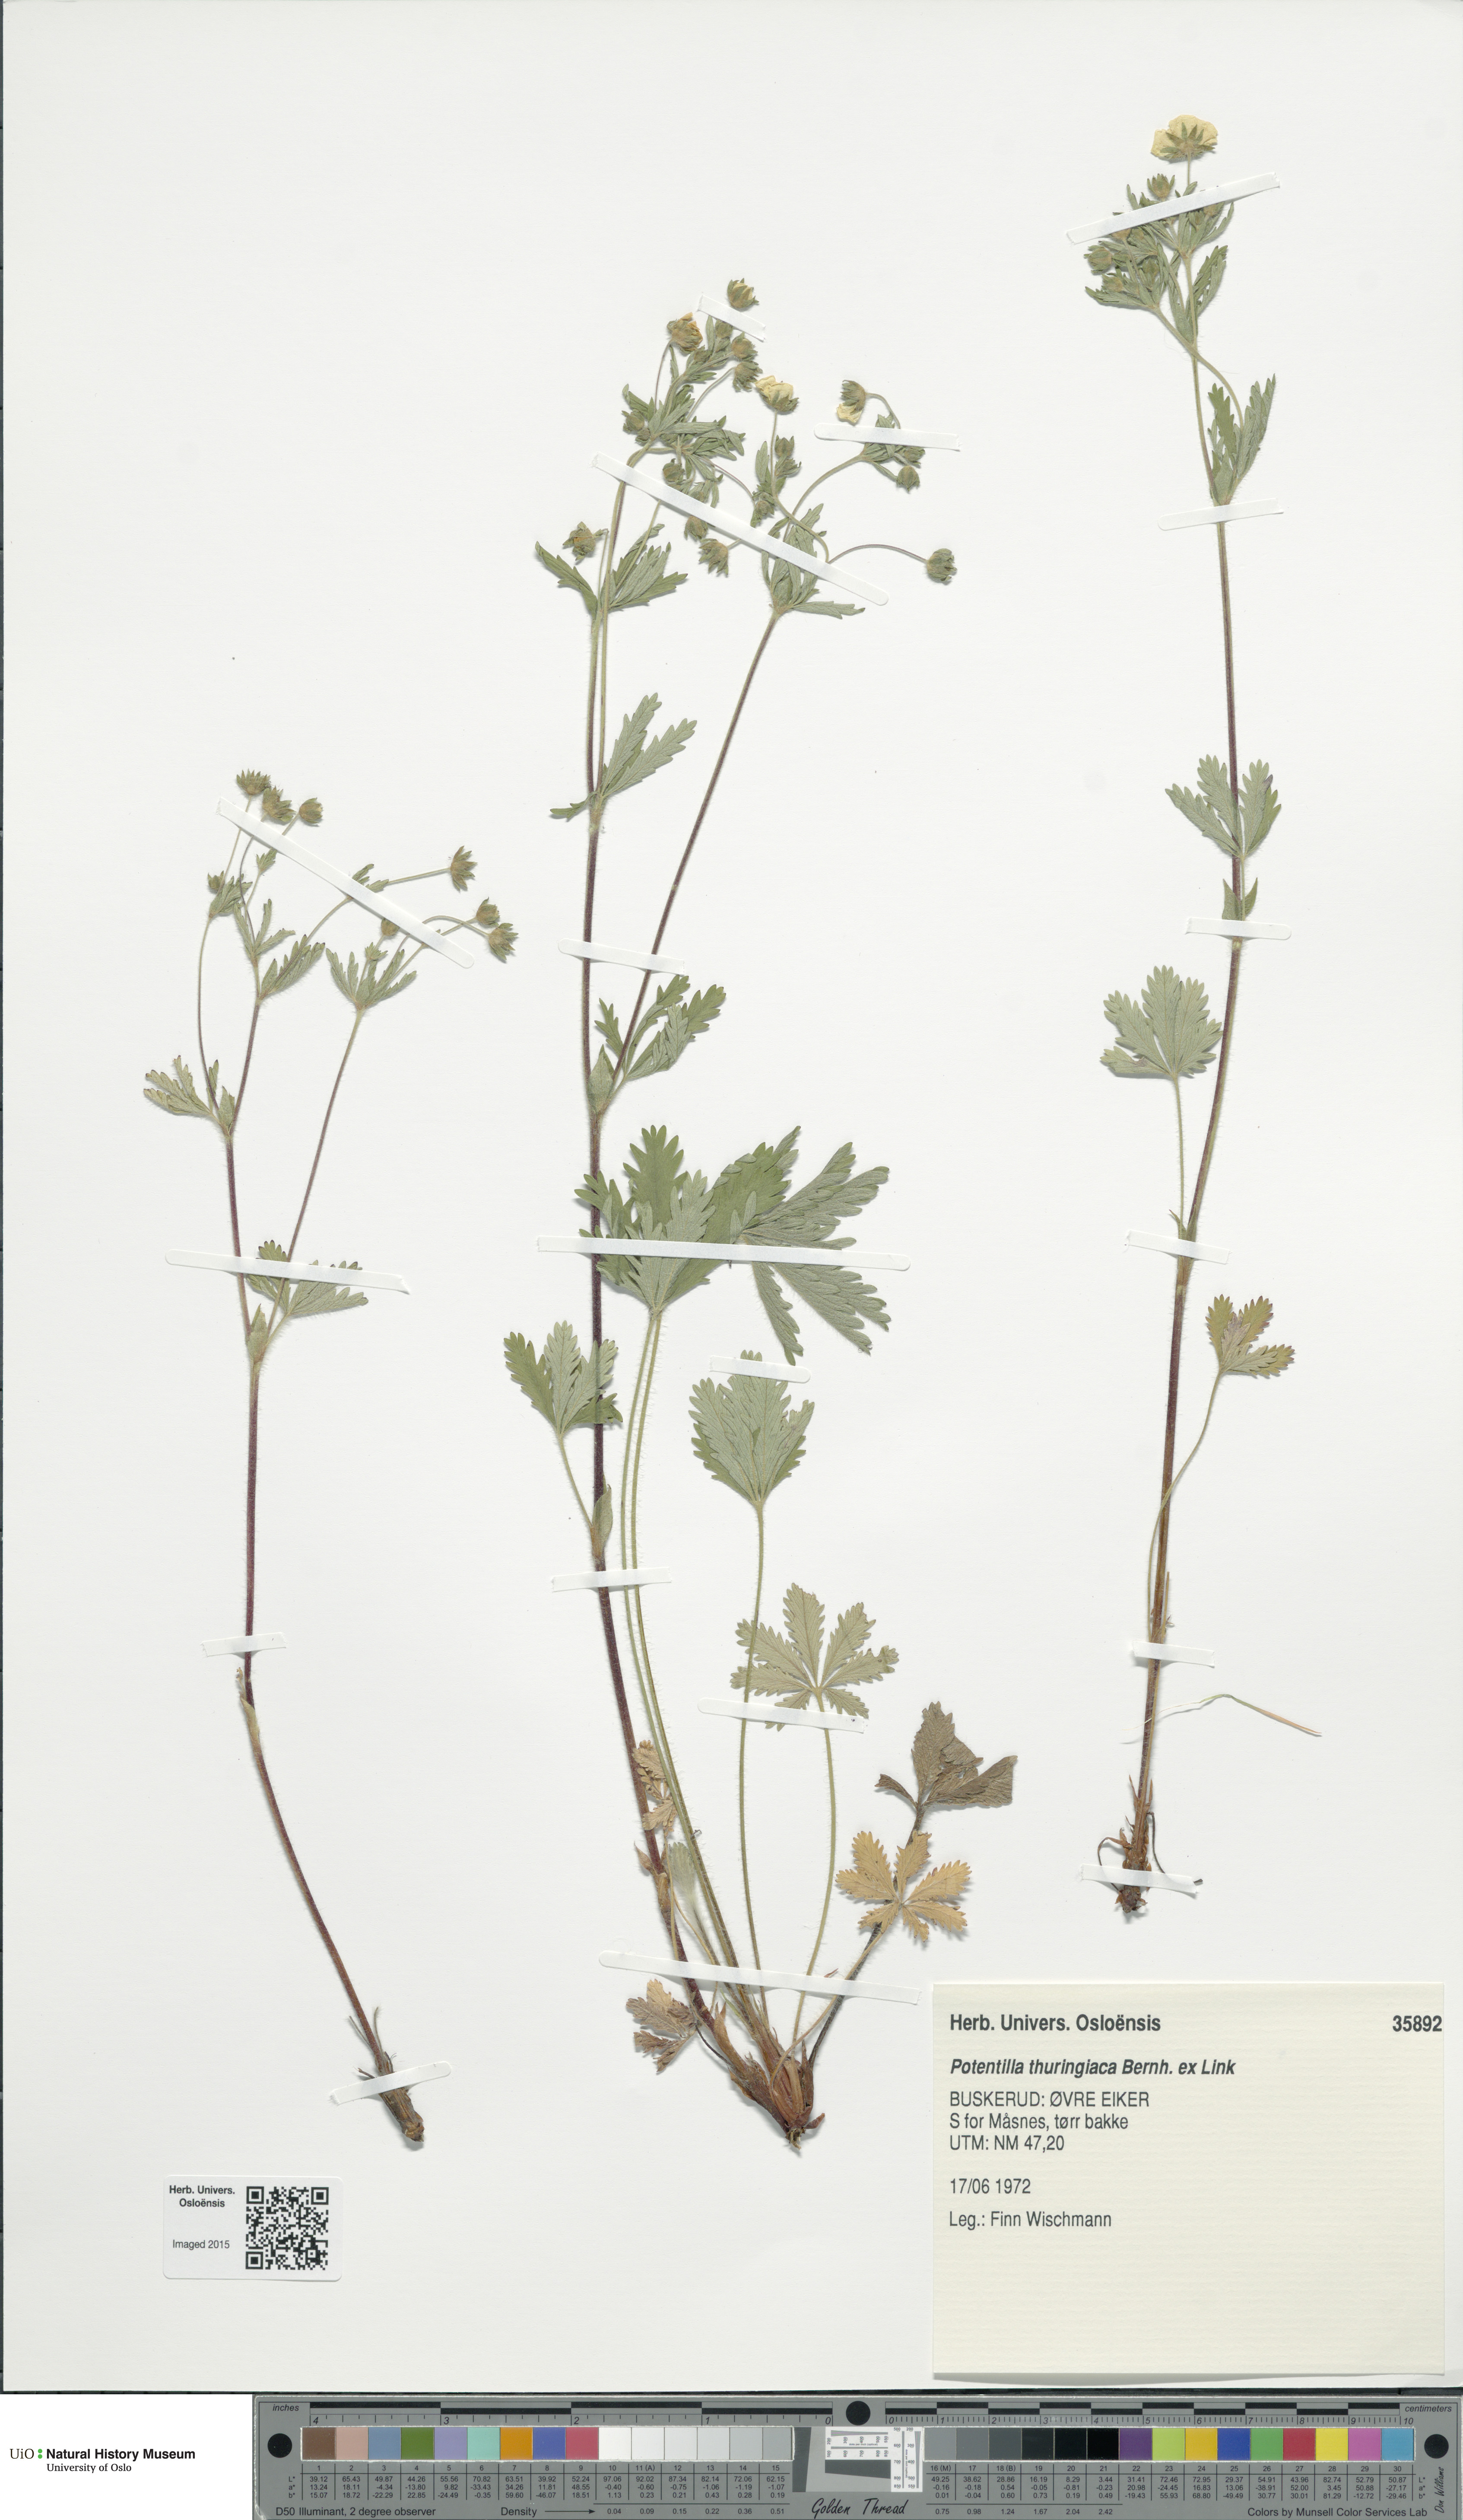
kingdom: Plantae
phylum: Tracheophyta
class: Magnoliopsida
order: Rosales
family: Rosaceae
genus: Potentilla
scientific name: Potentilla thuringiaca
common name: European cinquefoil
